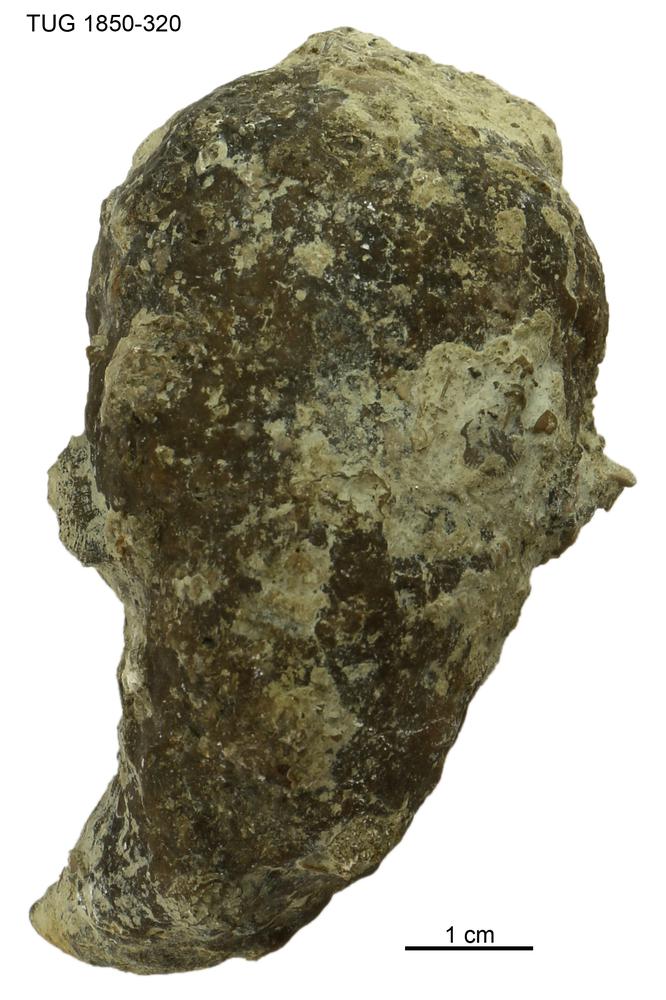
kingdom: Animalia
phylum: Porifera
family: Stromatoporidae
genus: Stromatopora
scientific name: Stromatopora
